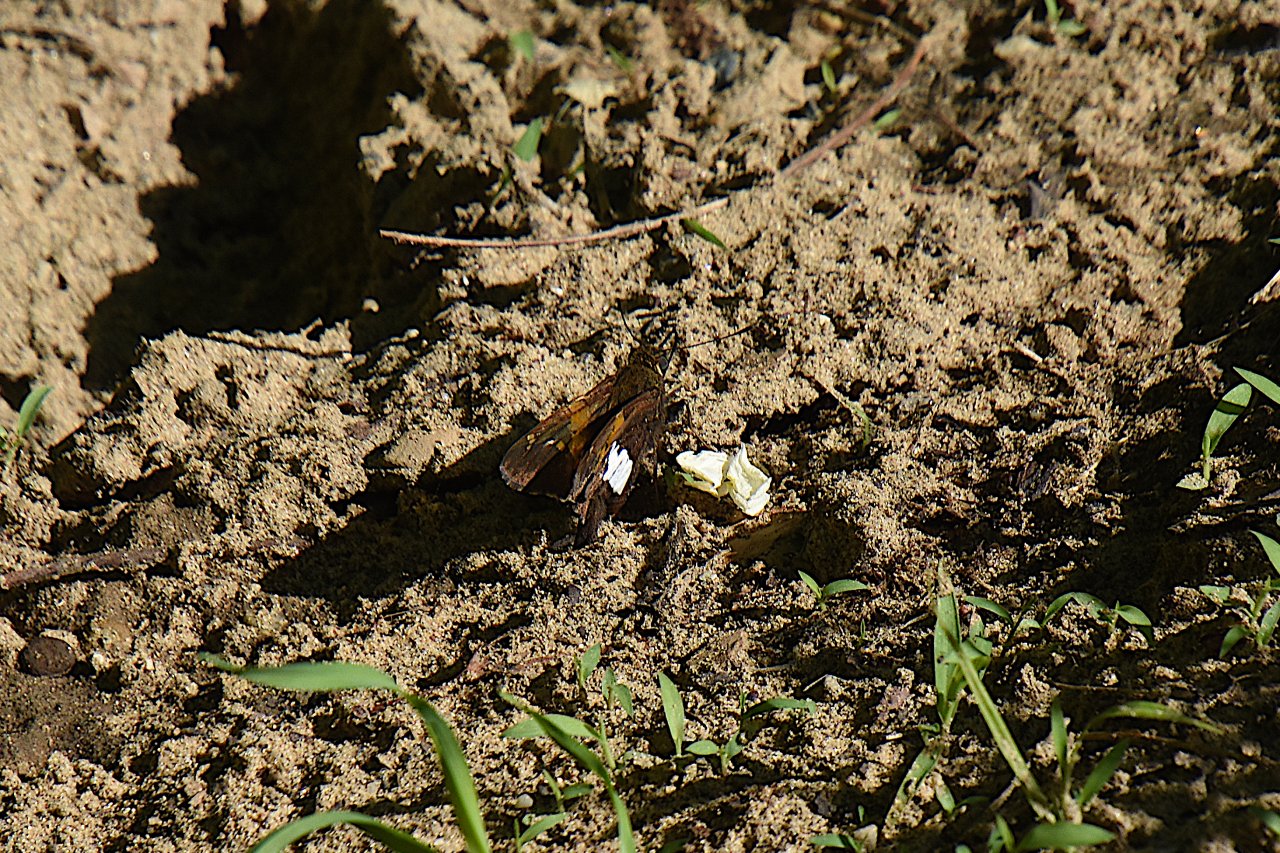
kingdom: Animalia
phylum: Arthropoda
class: Insecta
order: Lepidoptera
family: Hesperiidae
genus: Epargyreus
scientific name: Epargyreus clarus
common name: Silver-spotted Skipper
